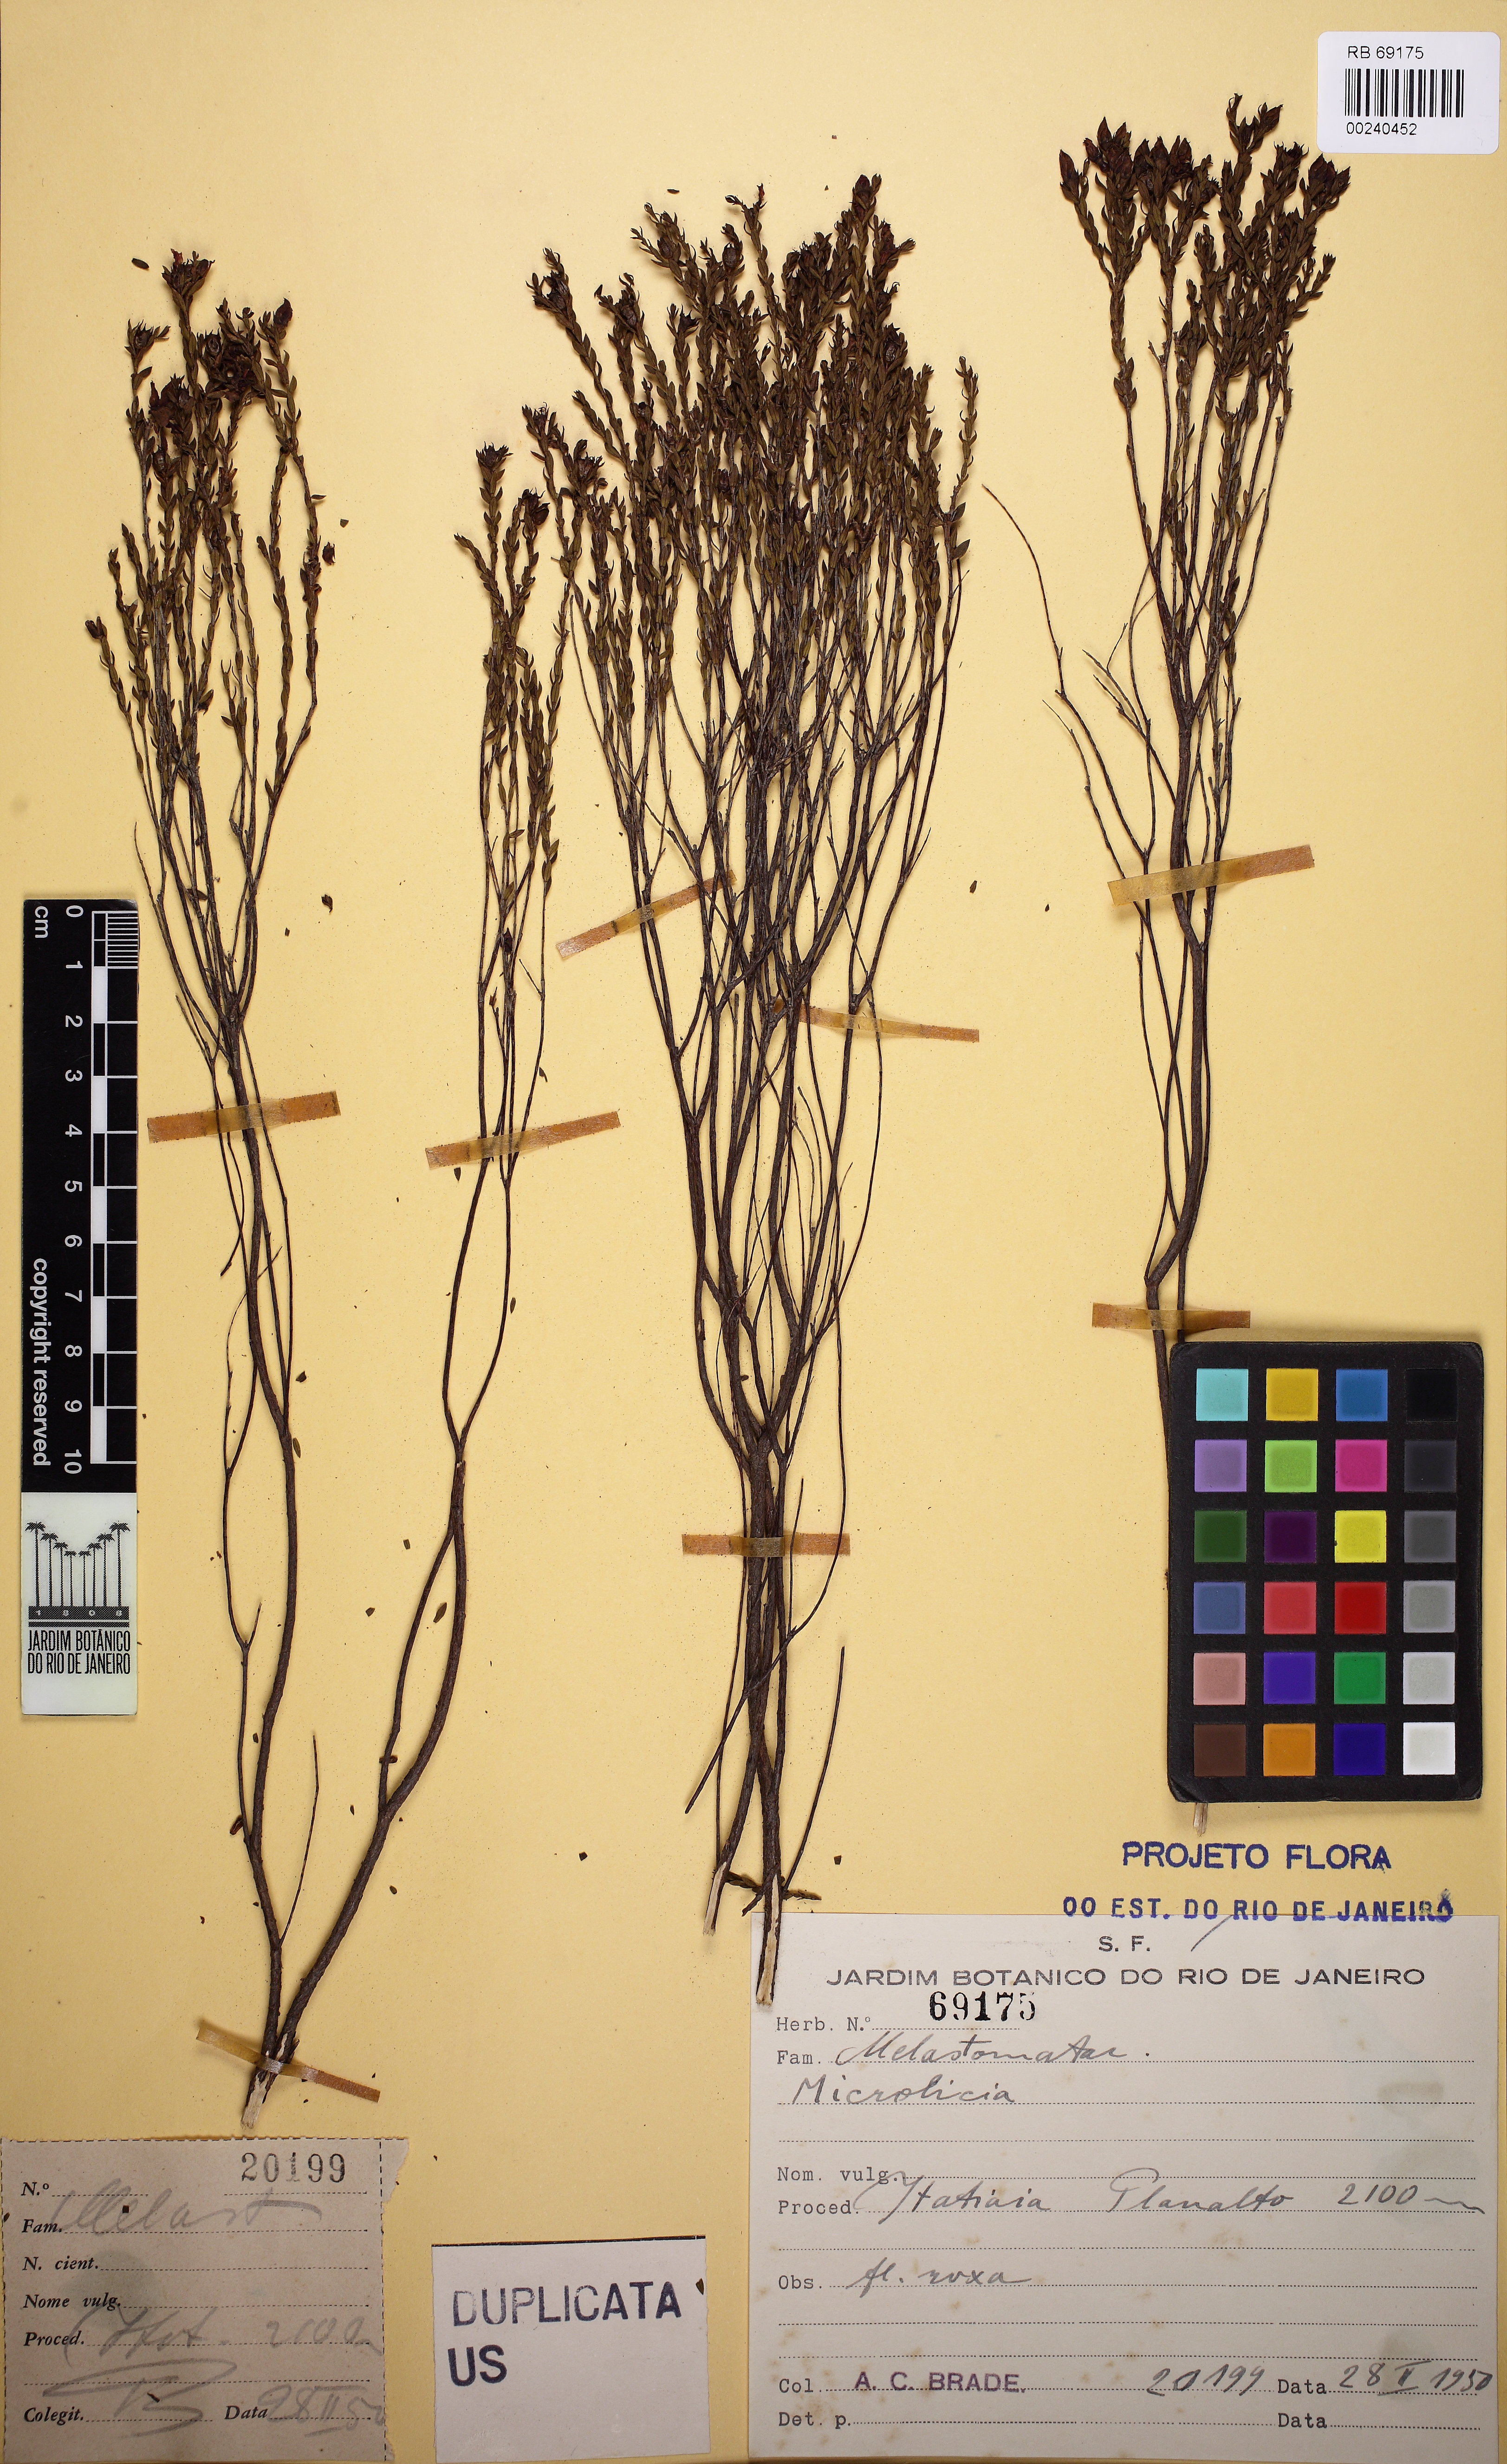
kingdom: Plantae
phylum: Tracheophyta
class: Magnoliopsida
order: Myrtales
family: Melastomataceae
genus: Microlicia
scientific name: Microlicia isophylla
